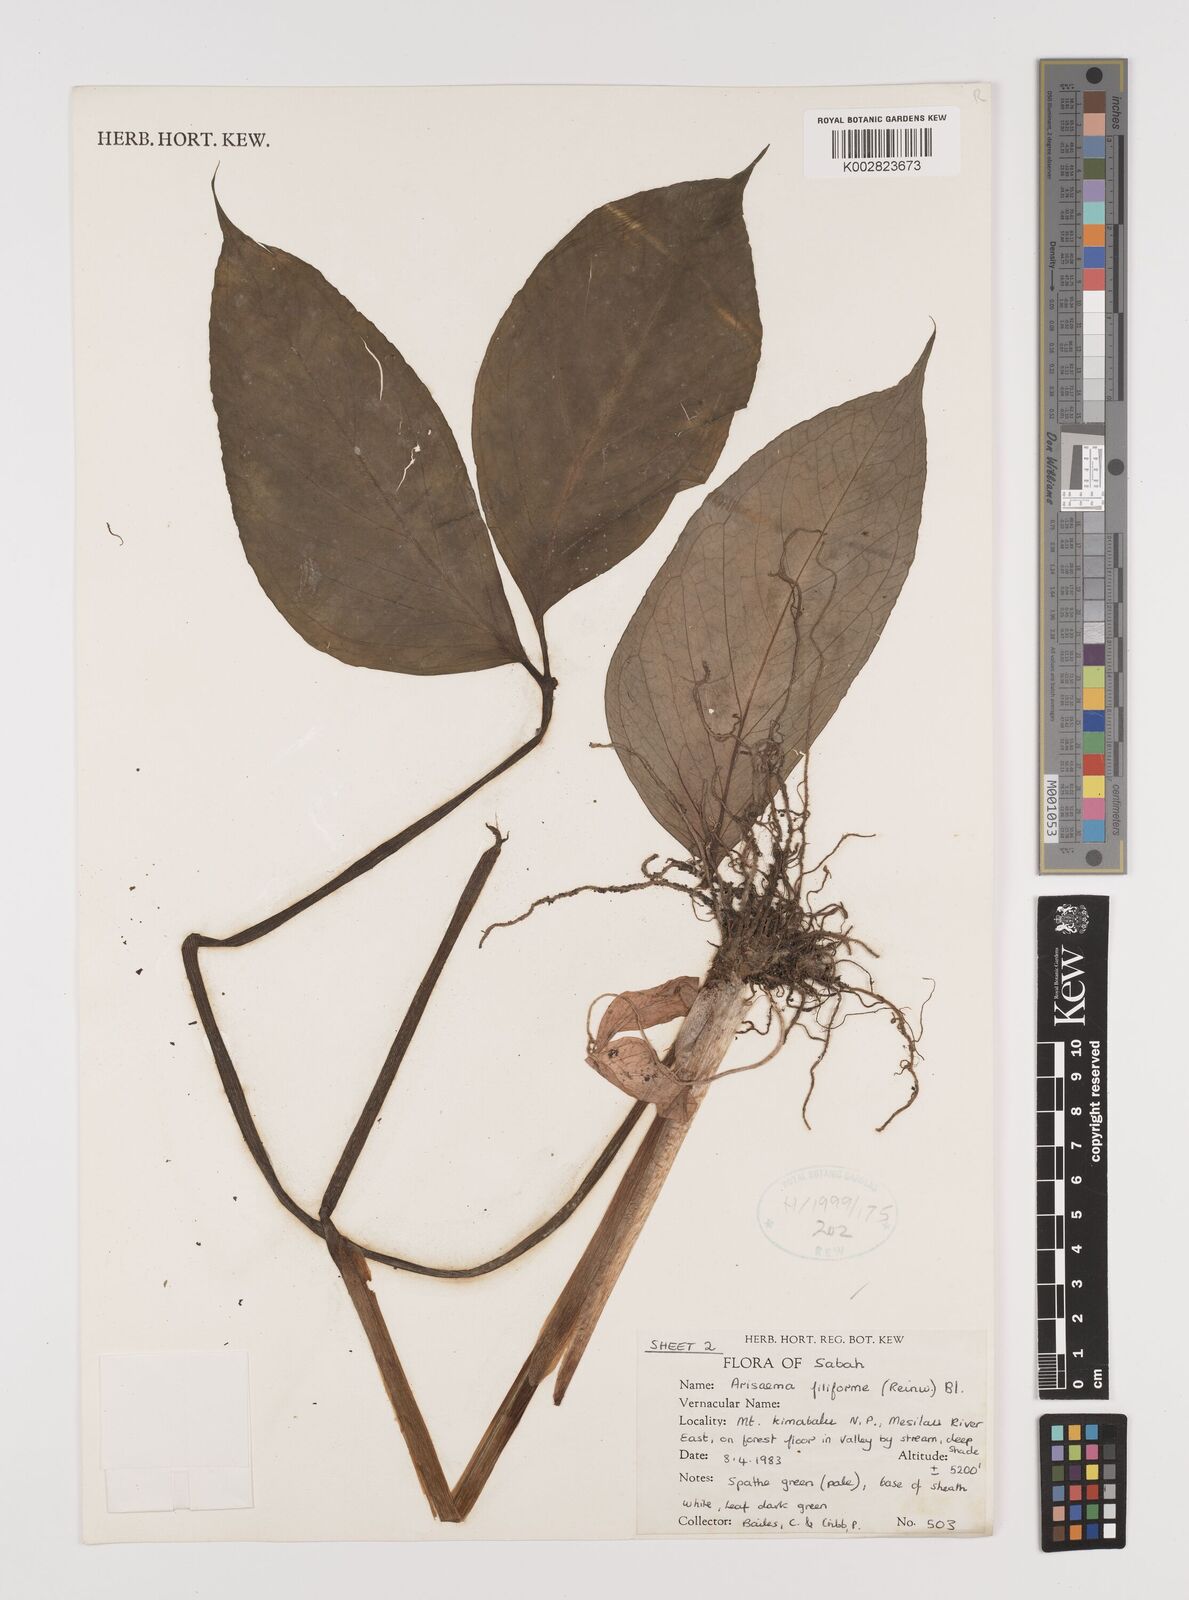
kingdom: Plantae
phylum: Tracheophyta
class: Liliopsida
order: Alismatales
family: Araceae
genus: Arisaema
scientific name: Arisaema filiforme
